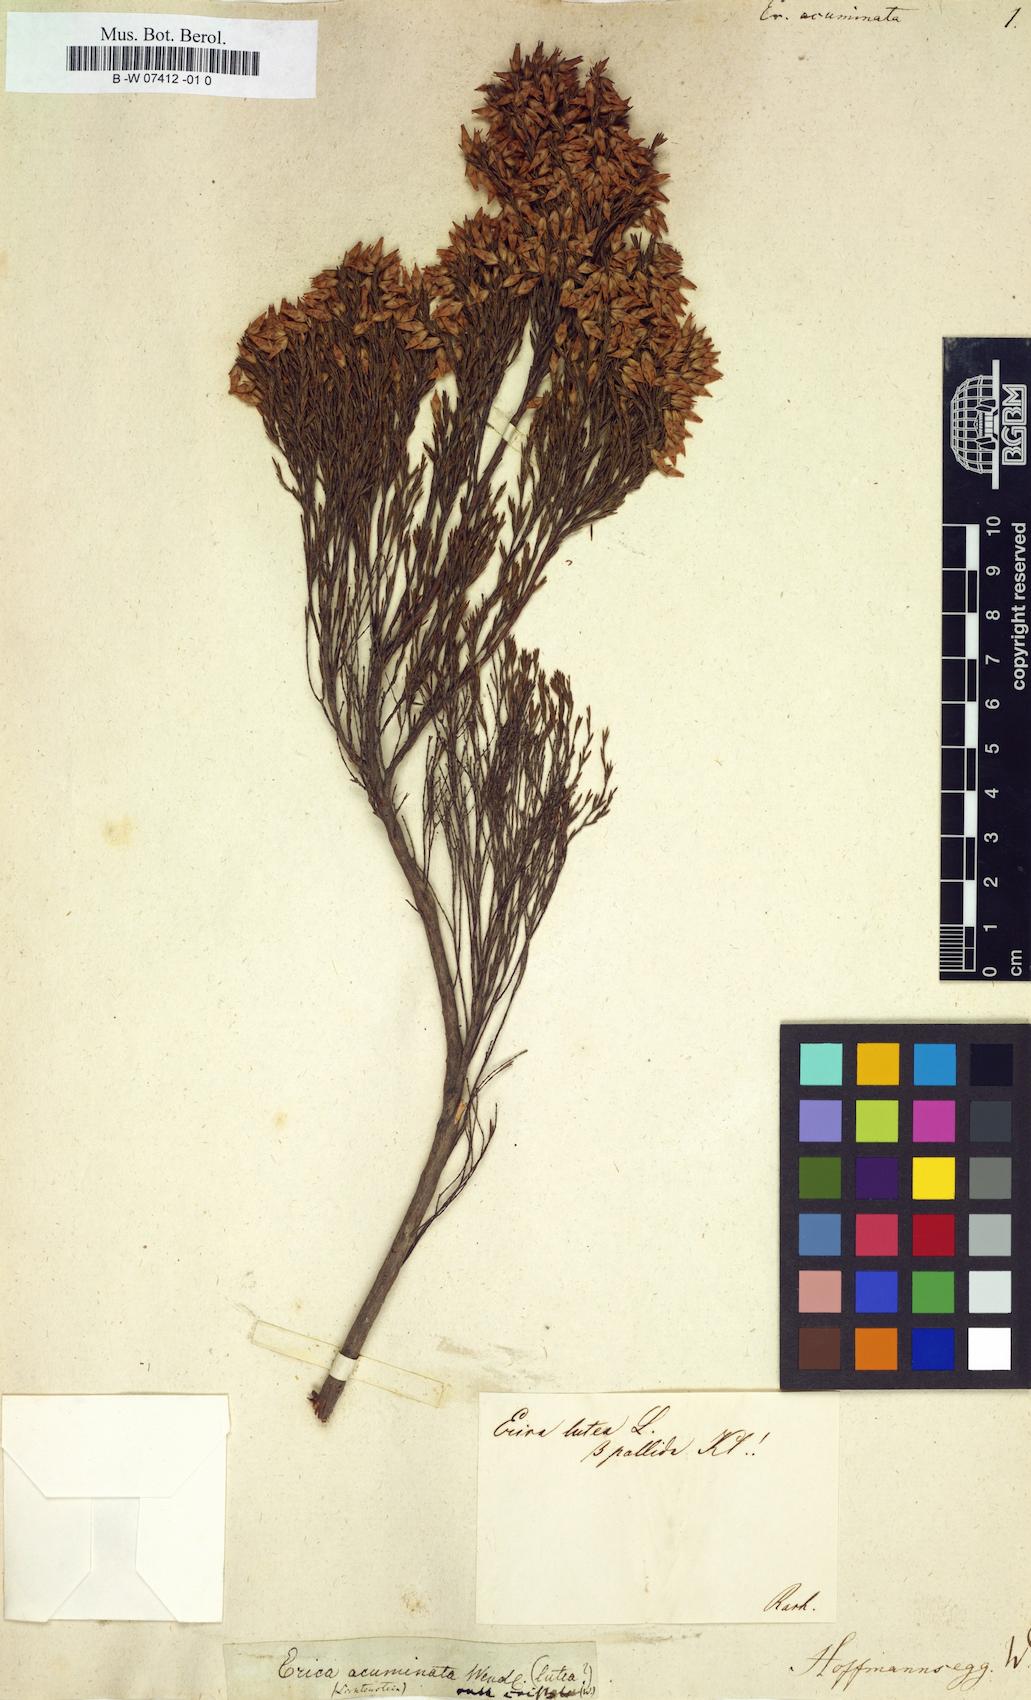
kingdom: Plantae
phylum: Tracheophyta
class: Magnoliopsida
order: Ericales
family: Ericaceae
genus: Erica
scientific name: Erica massonii
